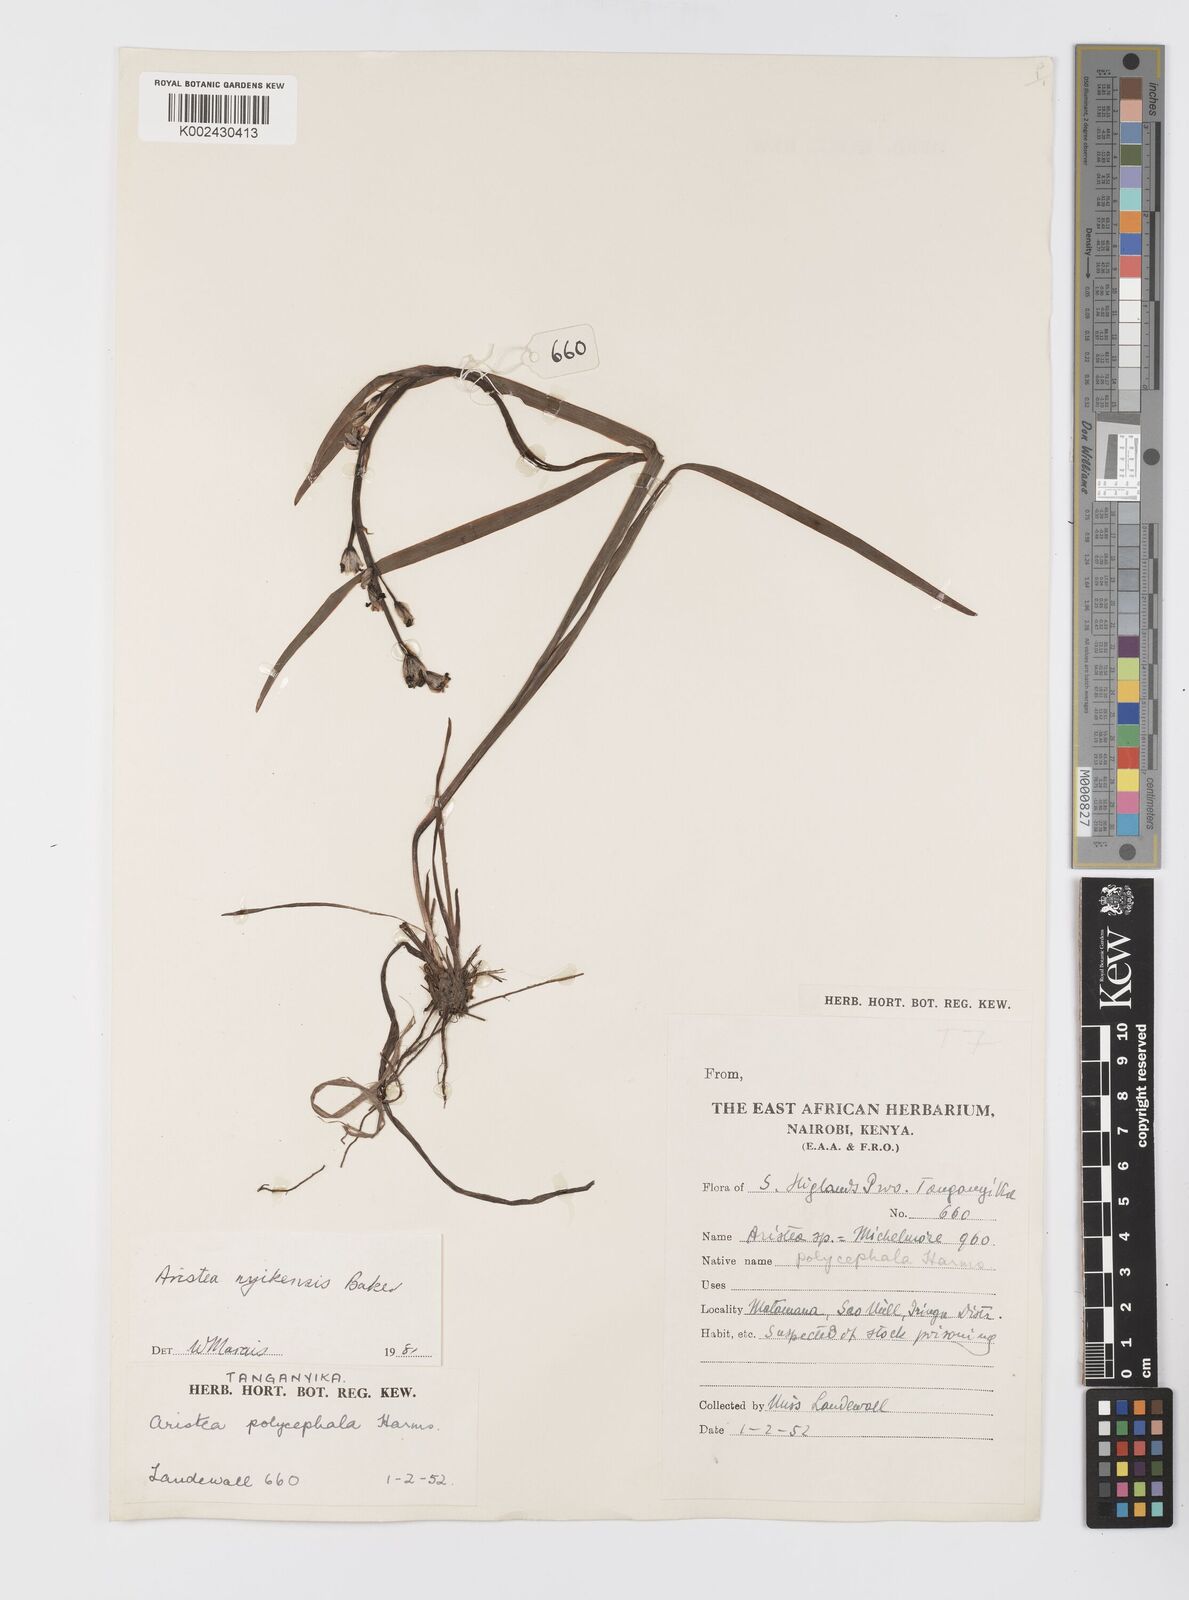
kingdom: Plantae
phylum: Tracheophyta
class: Liliopsida
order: Asparagales
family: Iridaceae
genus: Aristea
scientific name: Aristea nyikensis
